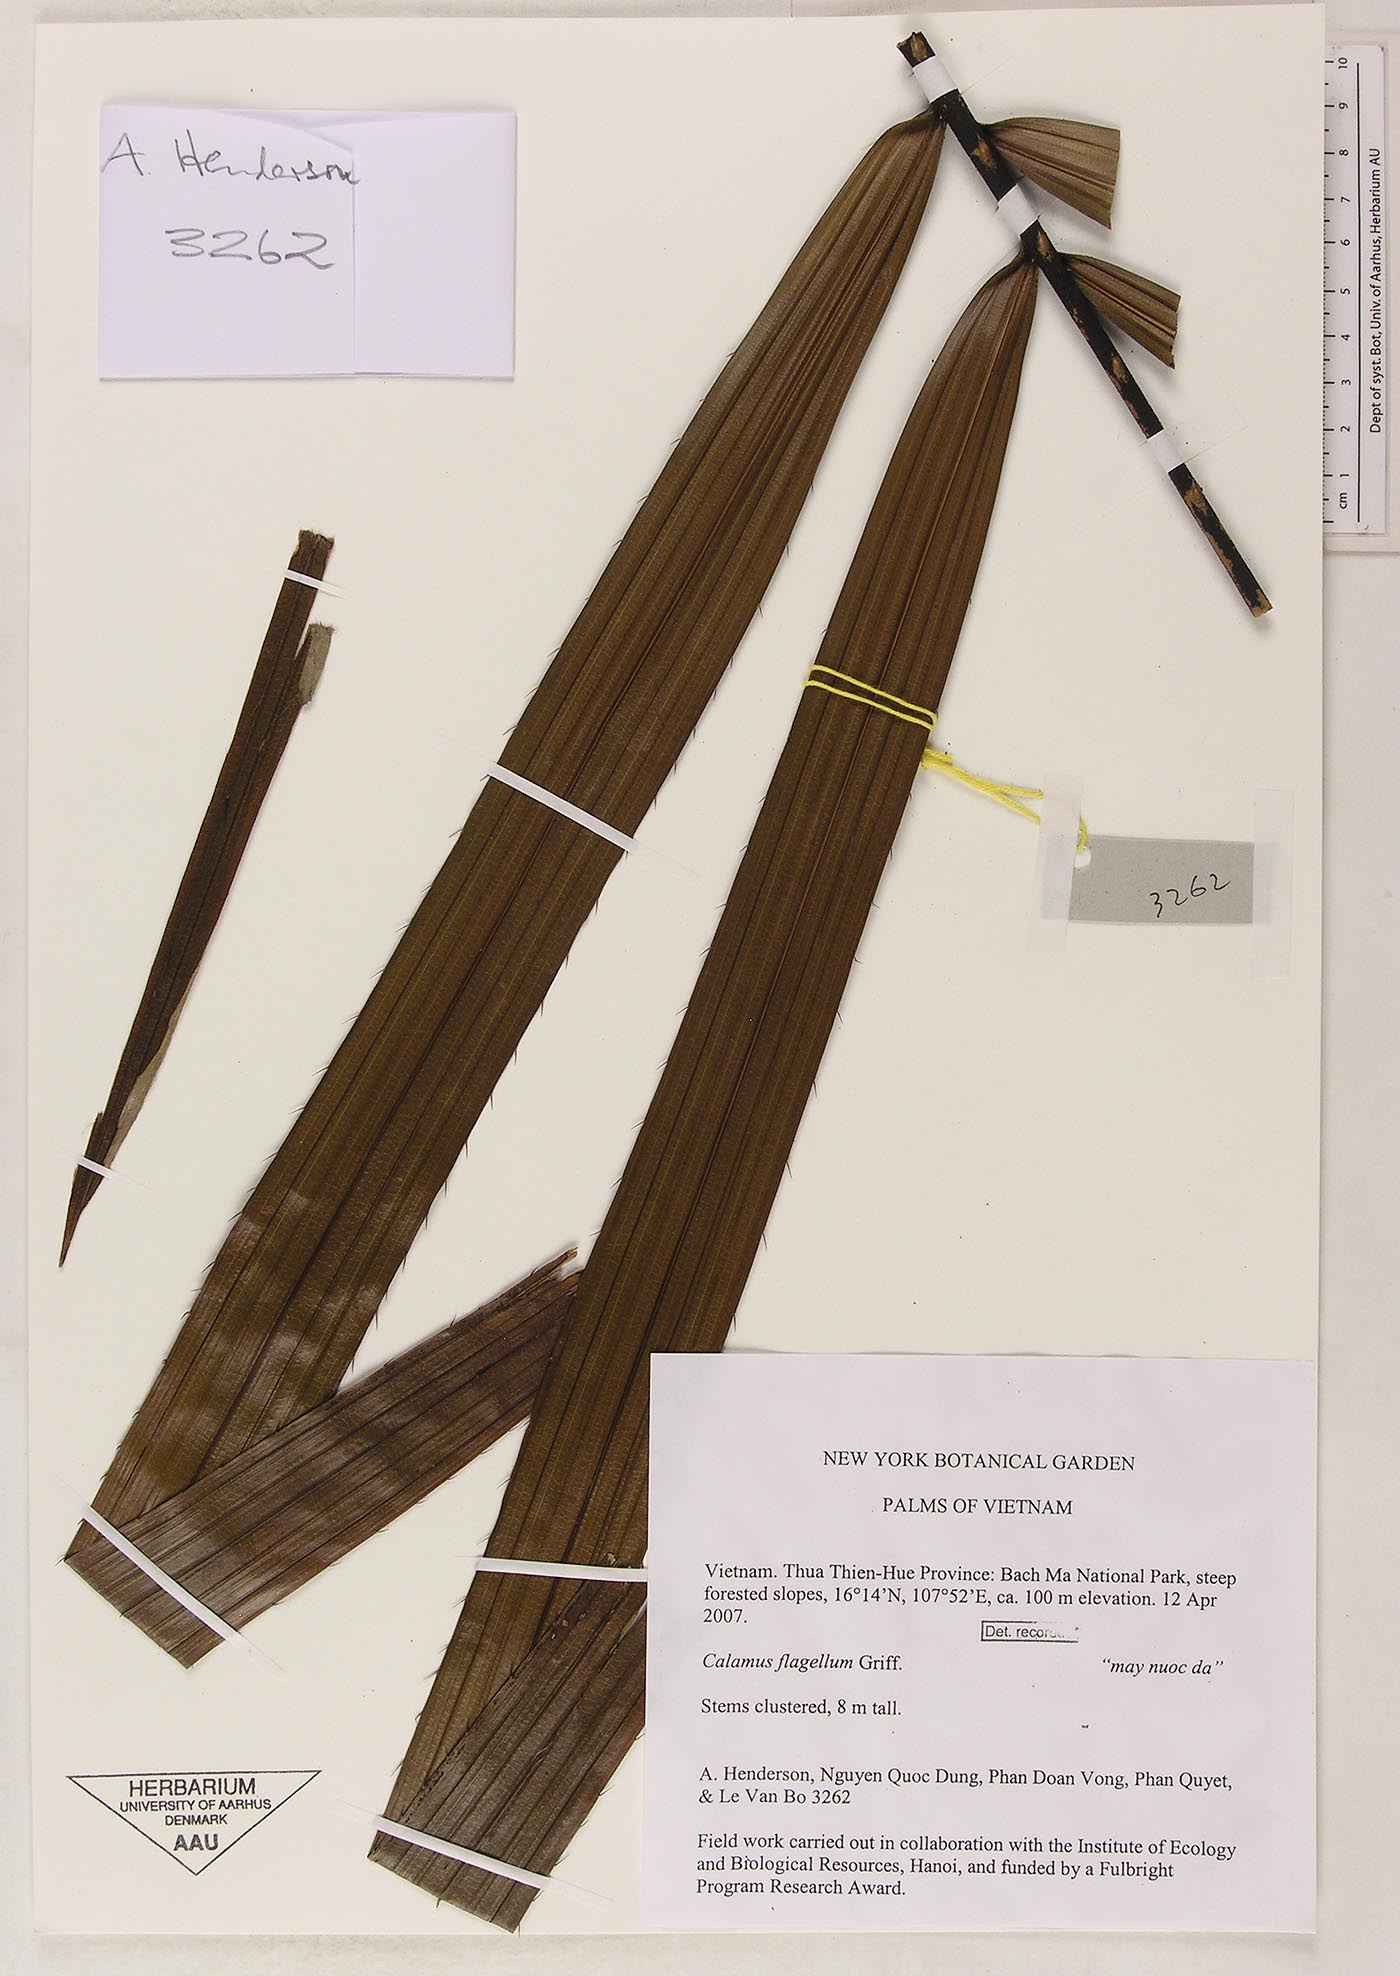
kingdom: Plantae
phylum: Tracheophyta
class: Liliopsida
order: Arecales
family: Arecaceae
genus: Calamus
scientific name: Calamus flagellum
